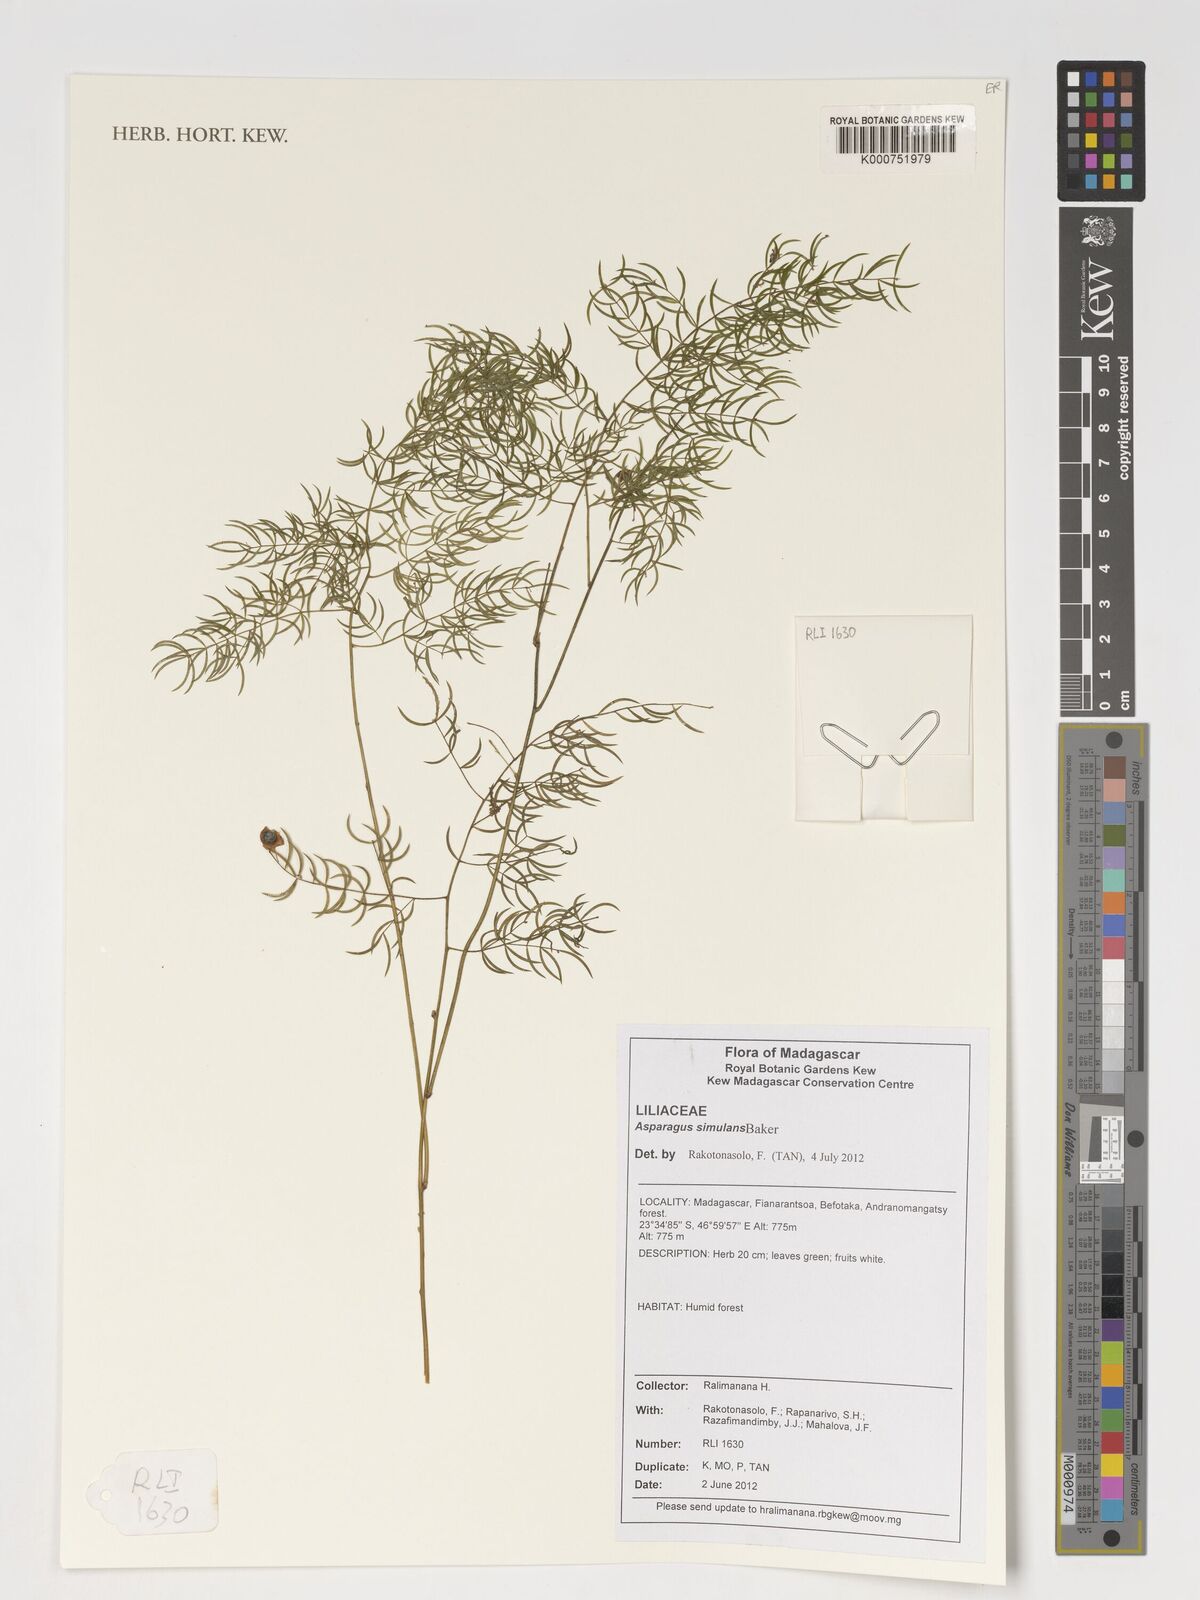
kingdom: Plantae
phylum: Tracheophyta
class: Liliopsida
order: Asparagales
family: Asparagaceae
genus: Asparagus
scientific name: Asparagus simulans
